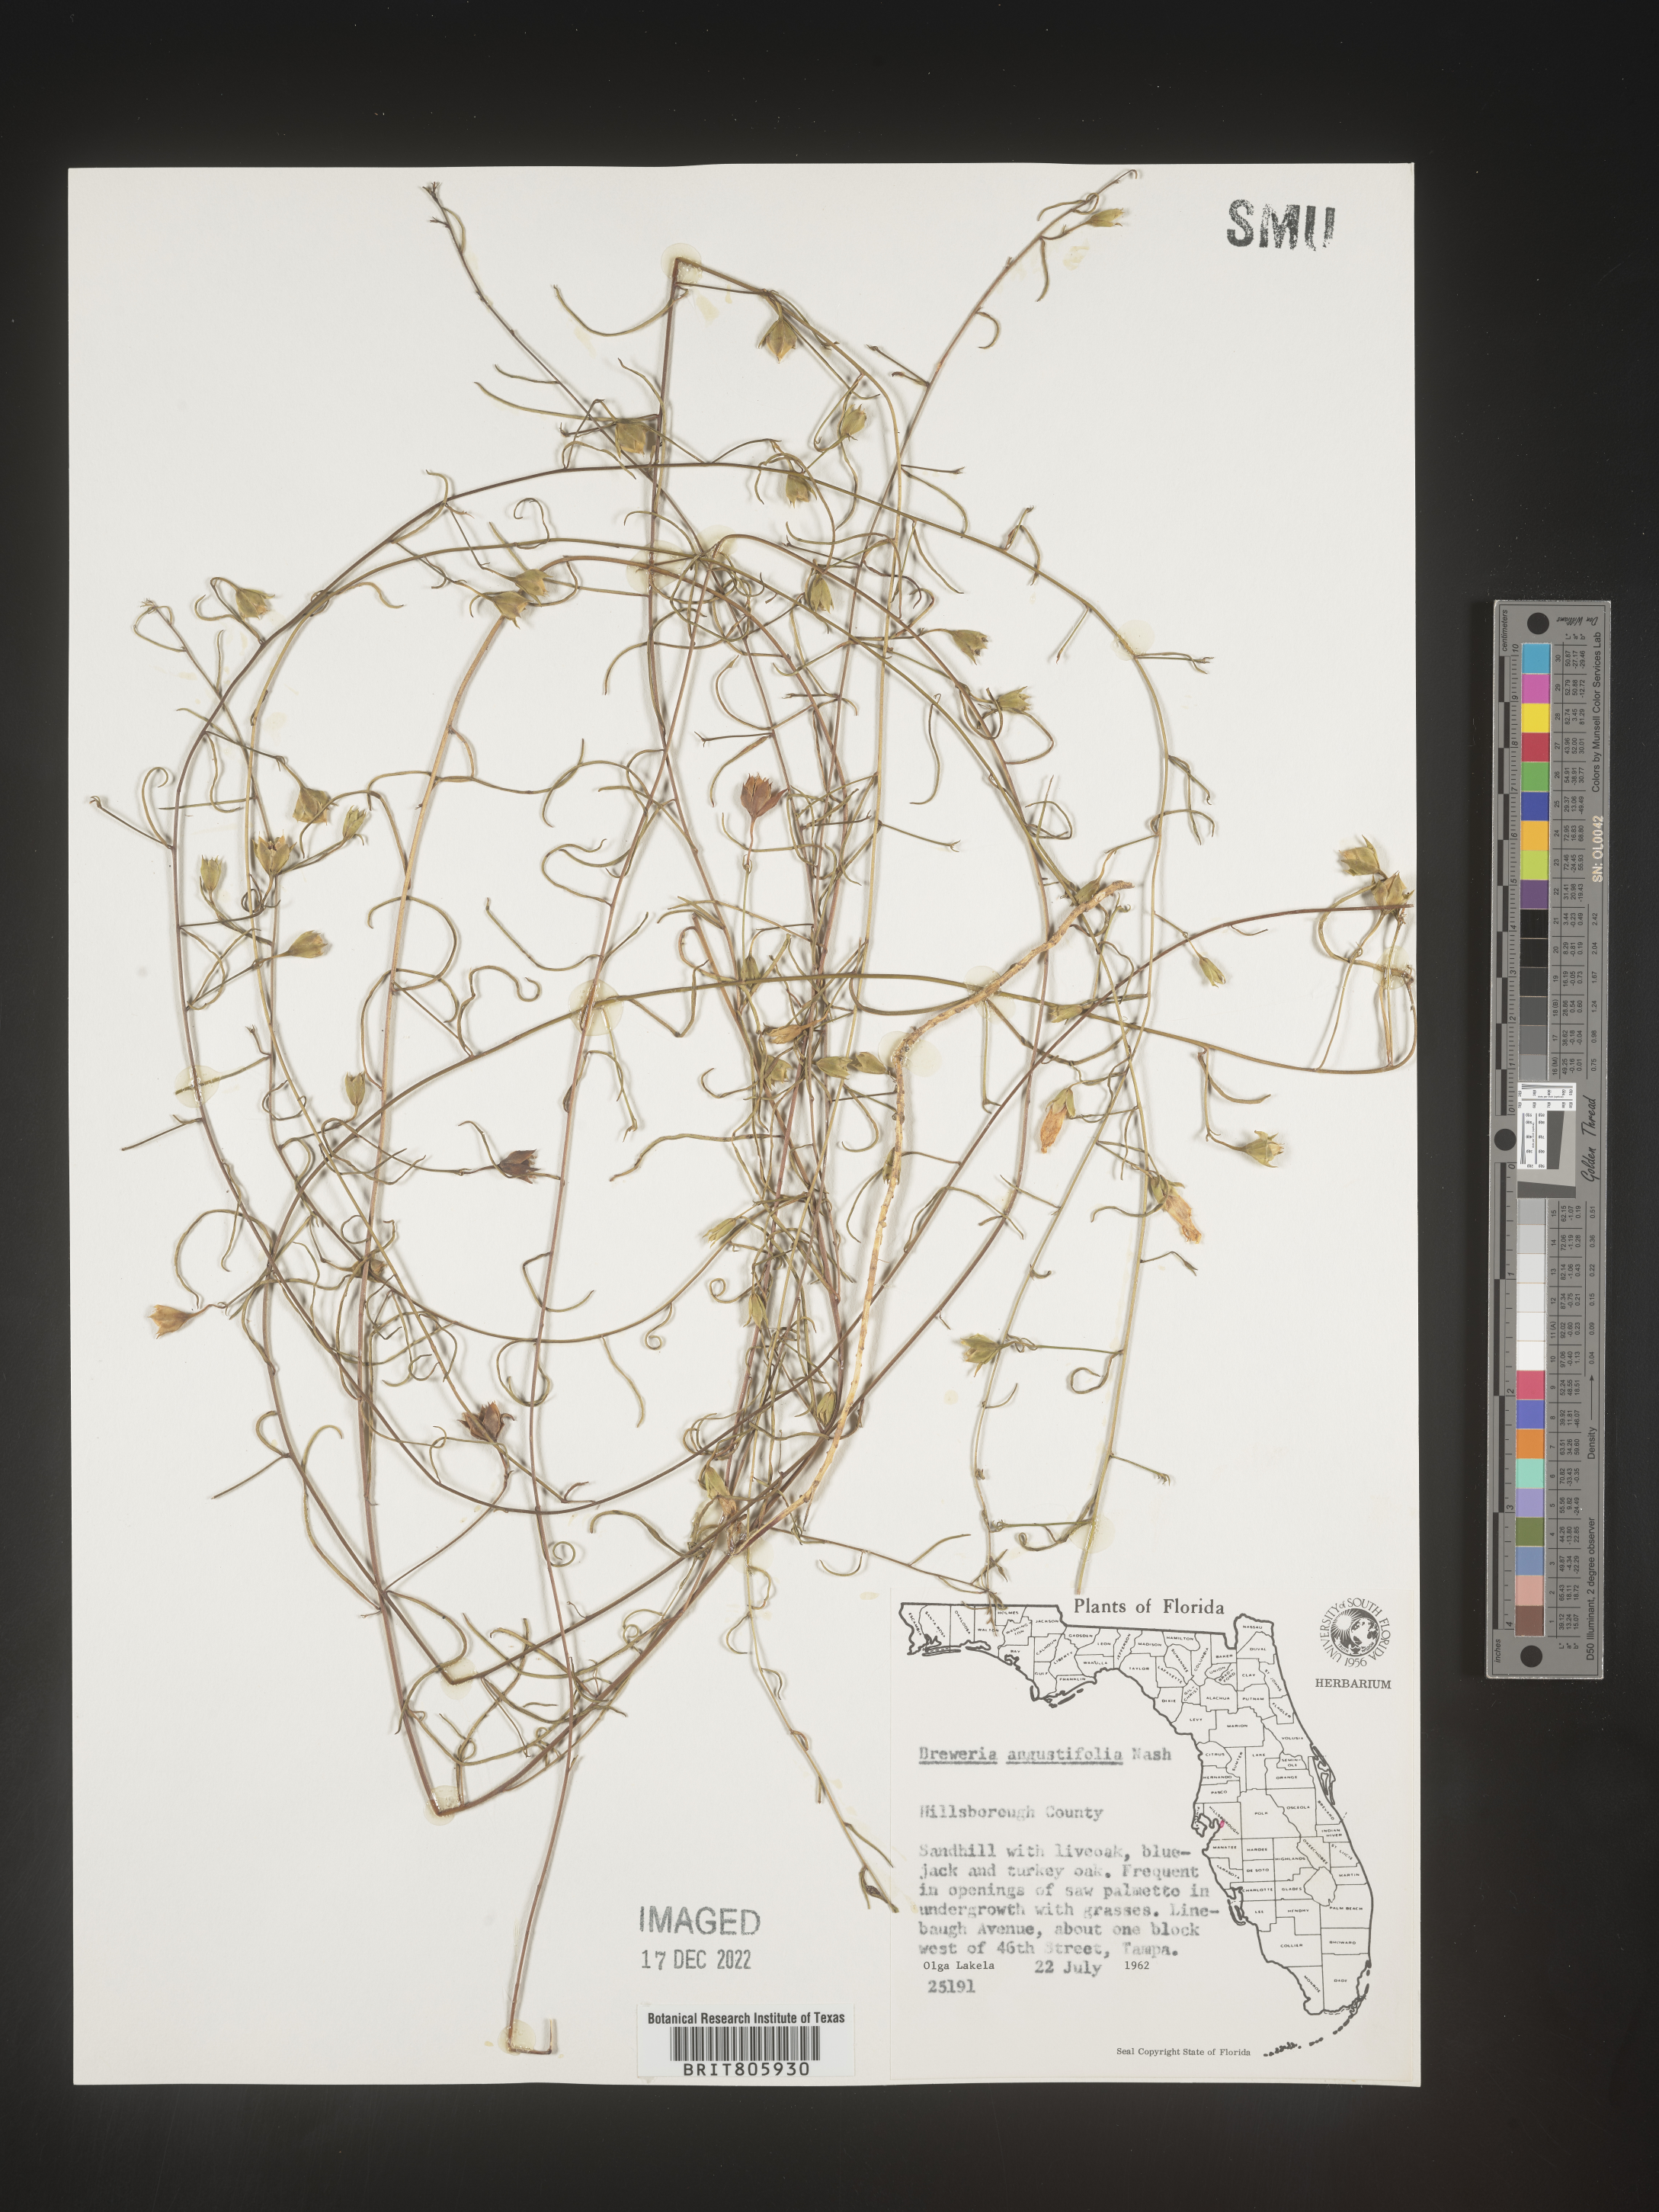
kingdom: Plantae
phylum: Tracheophyta
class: Magnoliopsida
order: Solanales
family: Convolvulaceae
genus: Stylisma
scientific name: Stylisma
